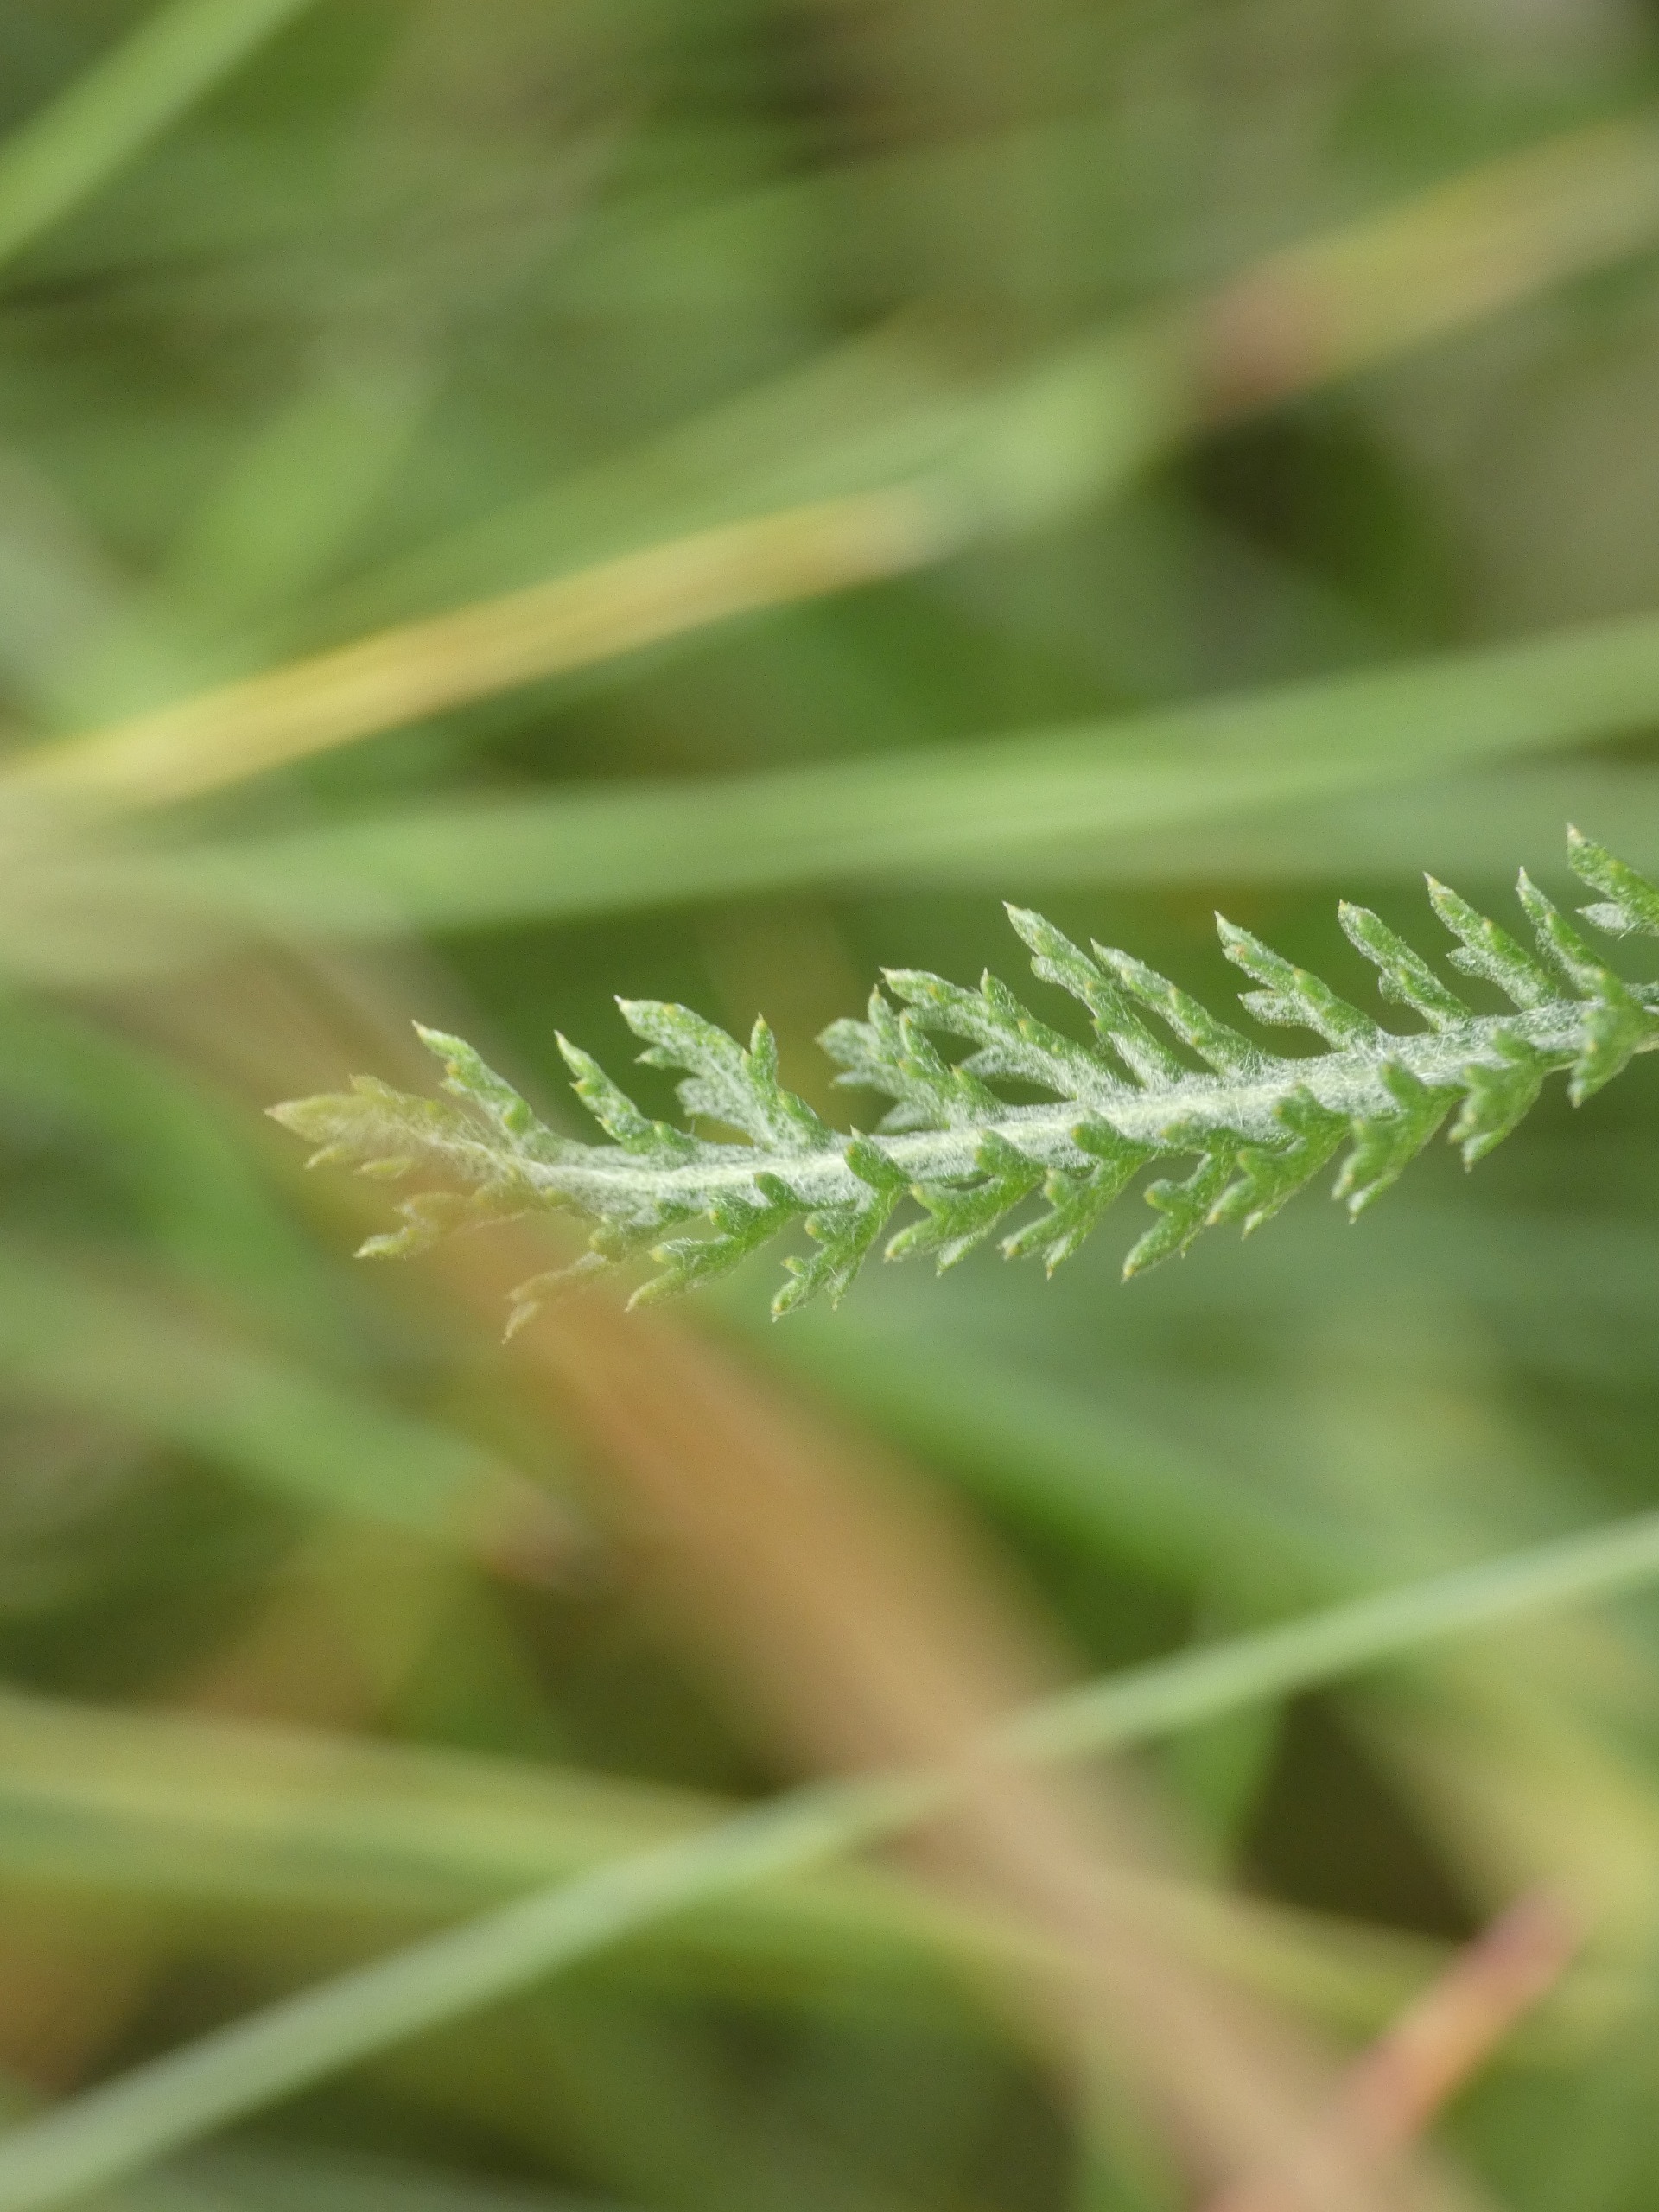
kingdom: Plantae
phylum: Tracheophyta
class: Magnoliopsida
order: Asterales
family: Asteraceae
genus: Achillea
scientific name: Achillea millefolium
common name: Almindelig røllike
